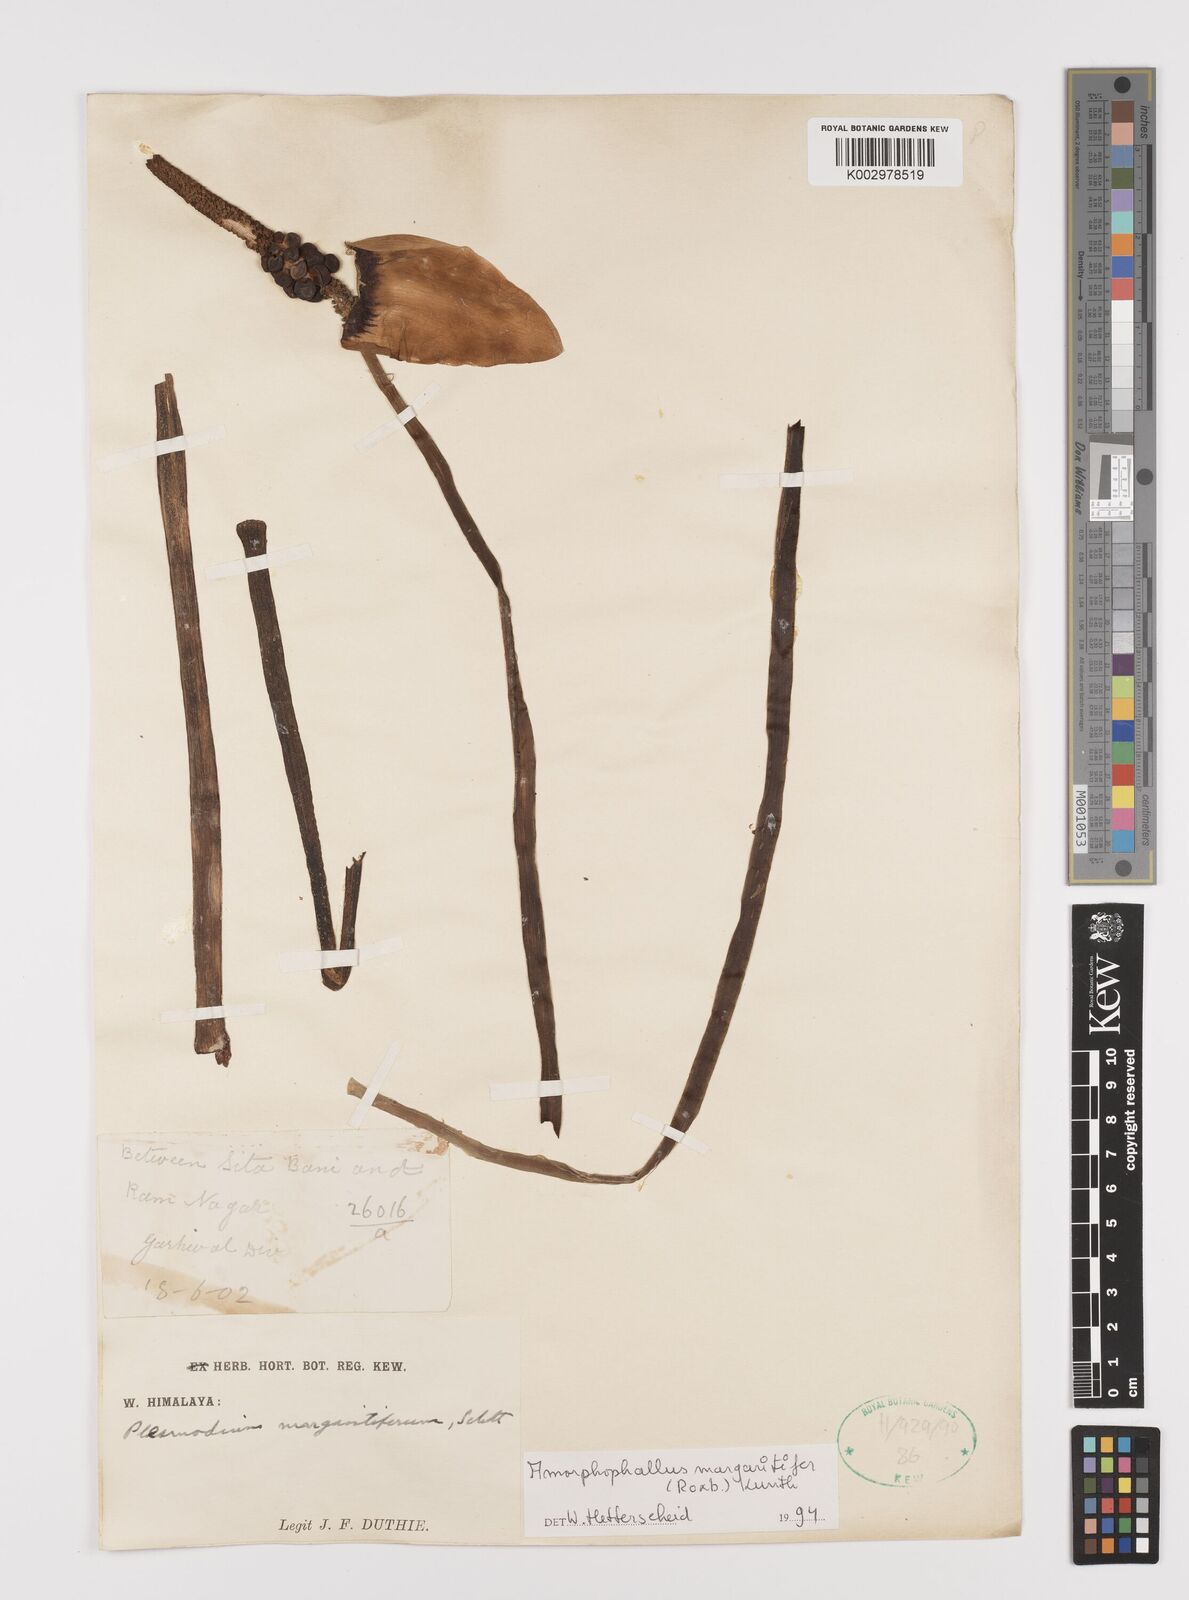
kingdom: Plantae
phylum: Tracheophyta
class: Liliopsida
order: Alismatales
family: Araceae
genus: Amorphophallus
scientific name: Amorphophallus margaritifer
